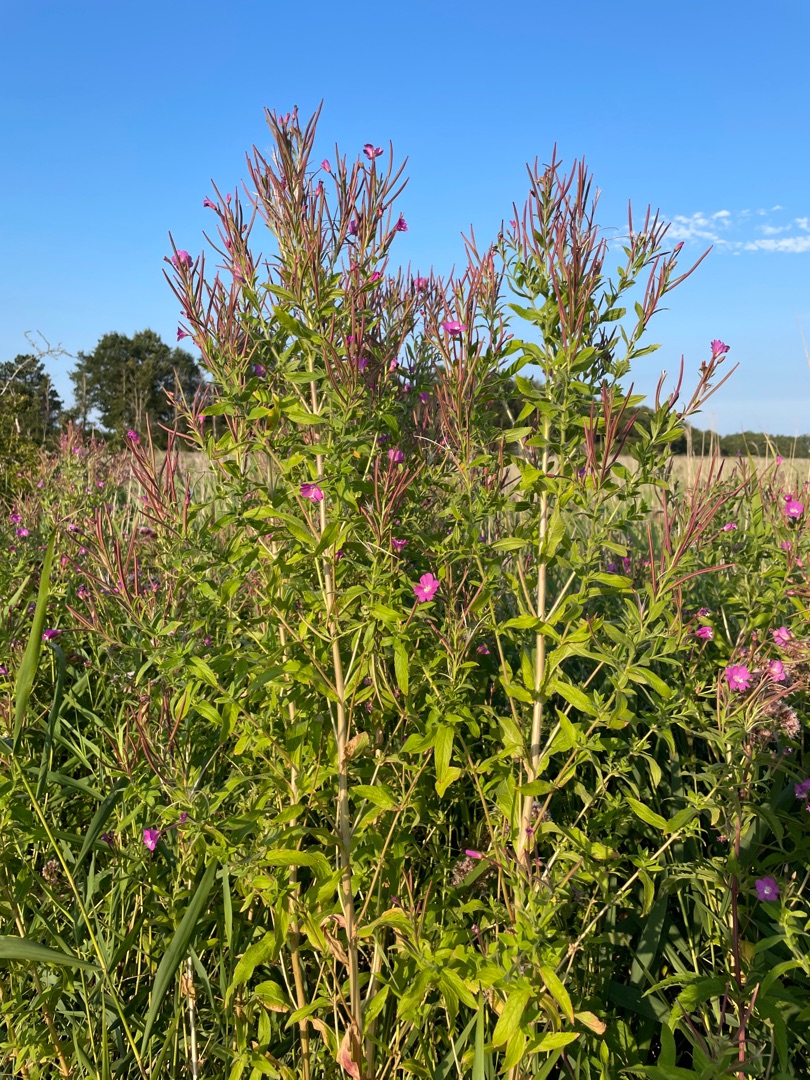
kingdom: Plantae
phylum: Tracheophyta
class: Magnoliopsida
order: Myrtales
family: Onagraceae
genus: Epilobium
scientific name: Epilobium hirsutum
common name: Lådden dueurt
